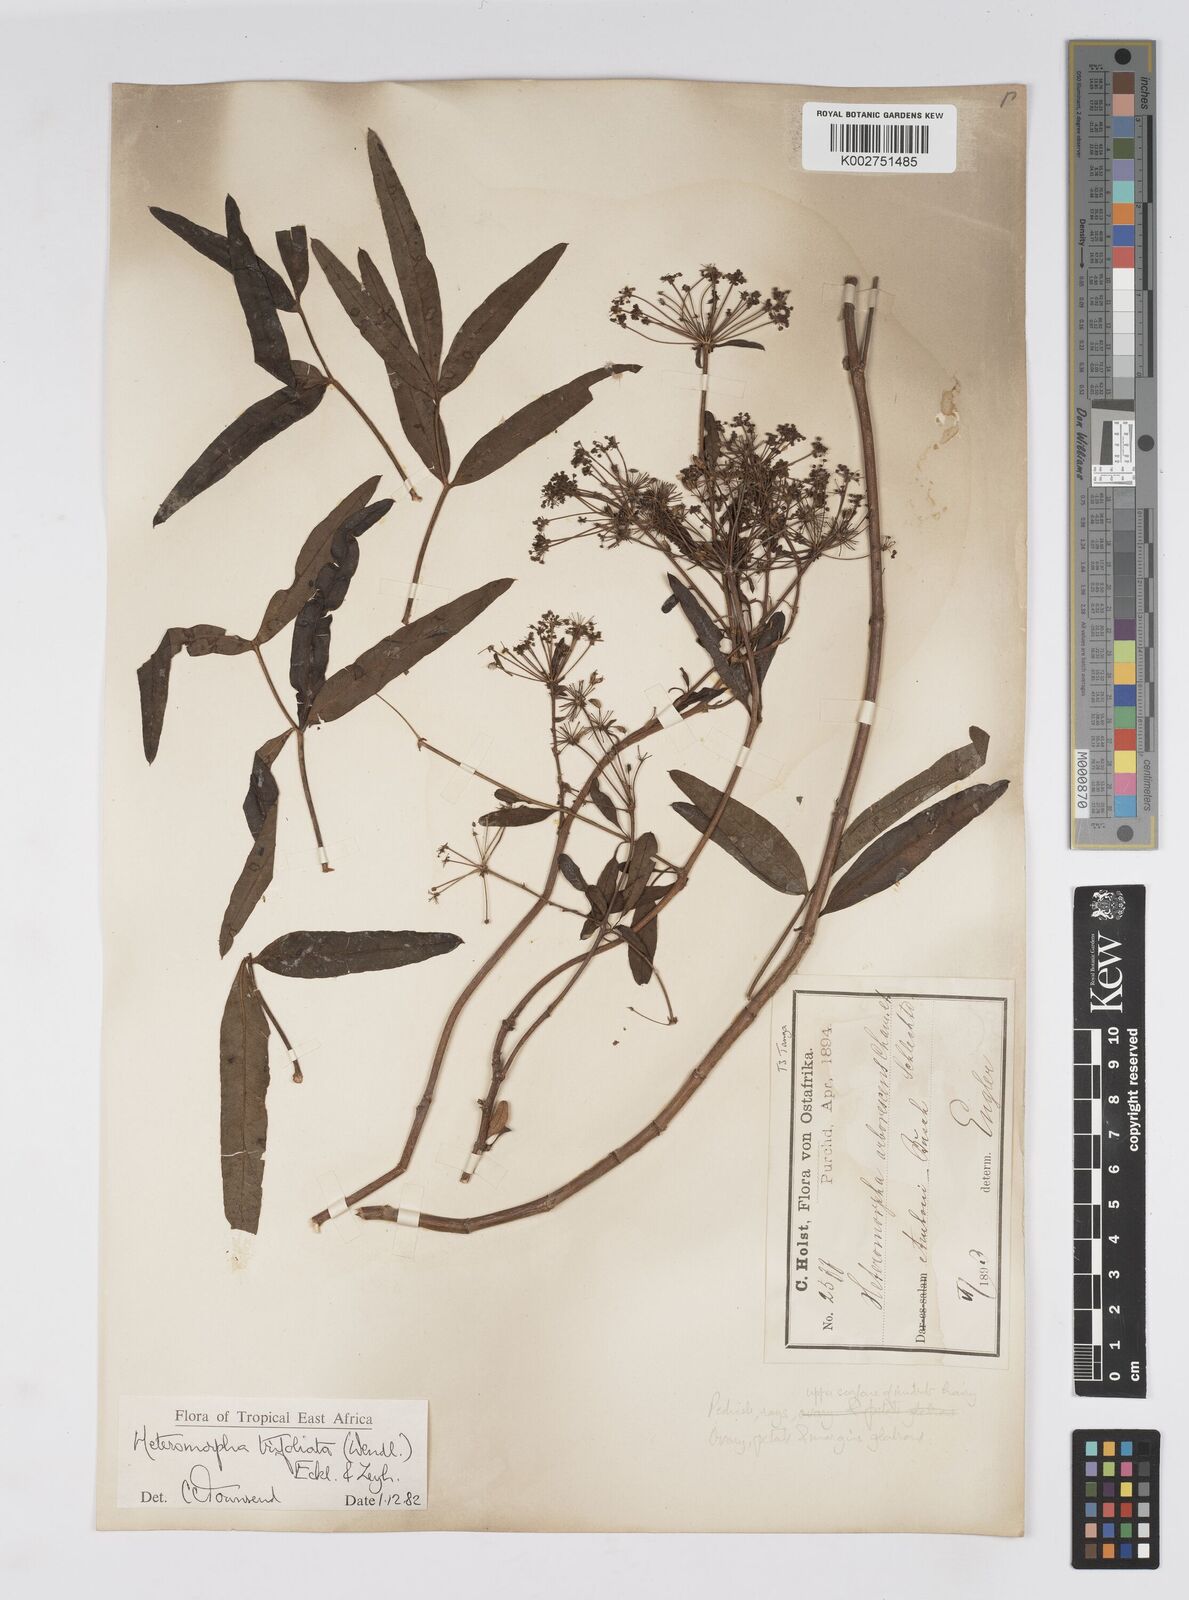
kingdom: Plantae
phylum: Tracheophyta
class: Magnoliopsida
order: Apiales
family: Apiaceae
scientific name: Apiaceae
